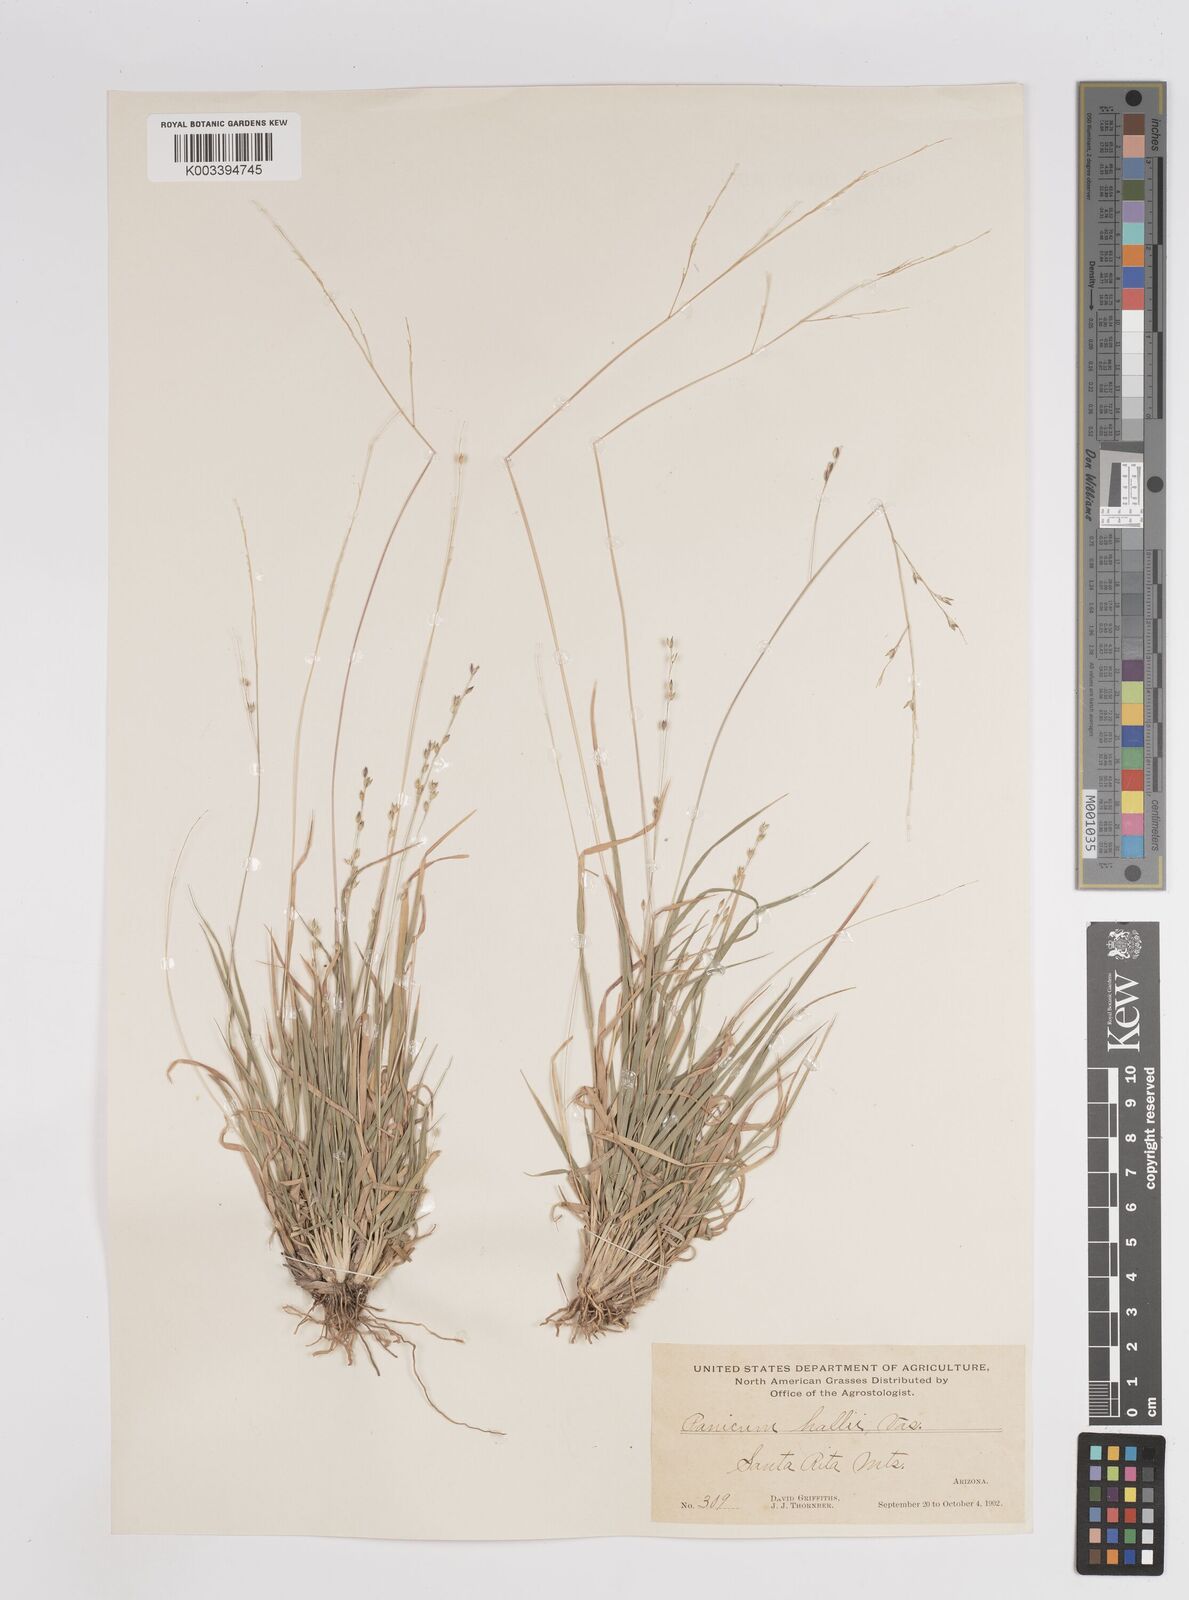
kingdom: Plantae
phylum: Tracheophyta
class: Liliopsida
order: Poales
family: Poaceae
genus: Panicum
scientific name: Panicum hallii
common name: Hall's witchgrass
